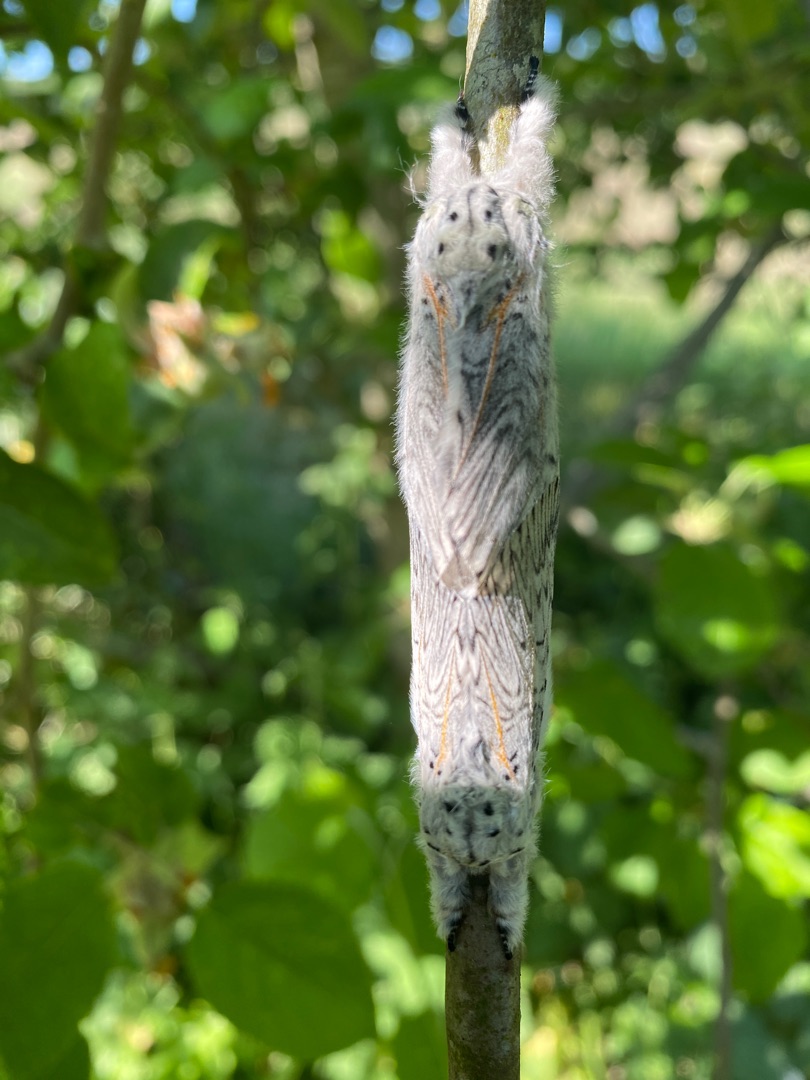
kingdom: Animalia
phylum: Arthropoda
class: Insecta
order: Lepidoptera
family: Notodontidae
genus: Cerura
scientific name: Cerura vinula
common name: Hermelinskåbe
